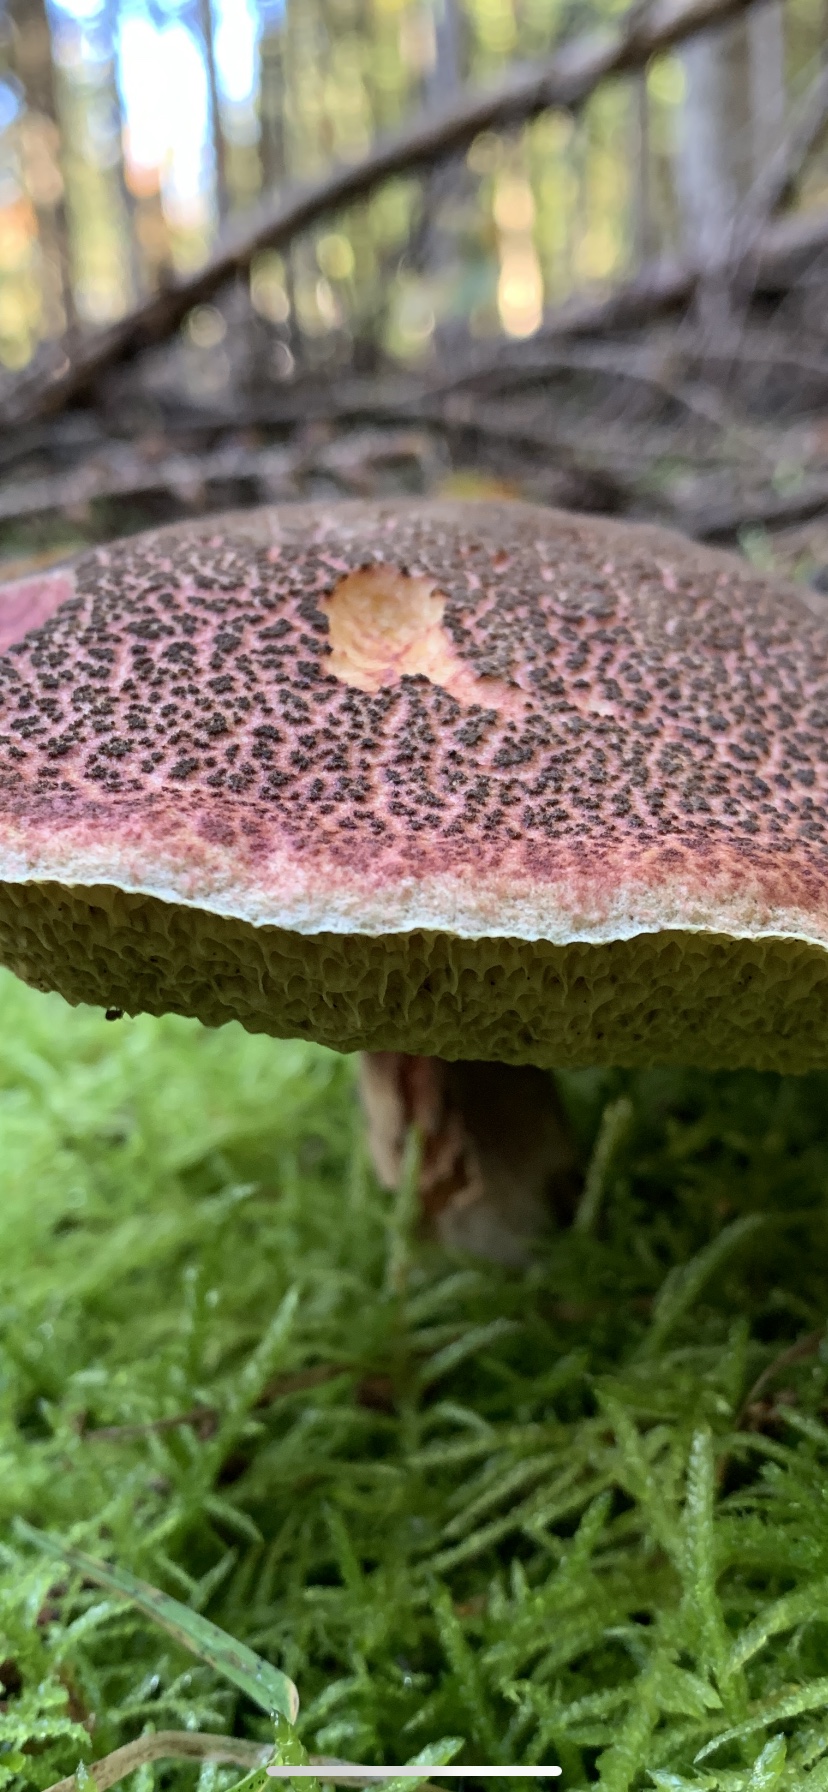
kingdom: Fungi
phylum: Basidiomycota
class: Agaricomycetes
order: Boletales
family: Boletaceae
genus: Xerocomellus
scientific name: Xerocomellus
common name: dværgrørhat
